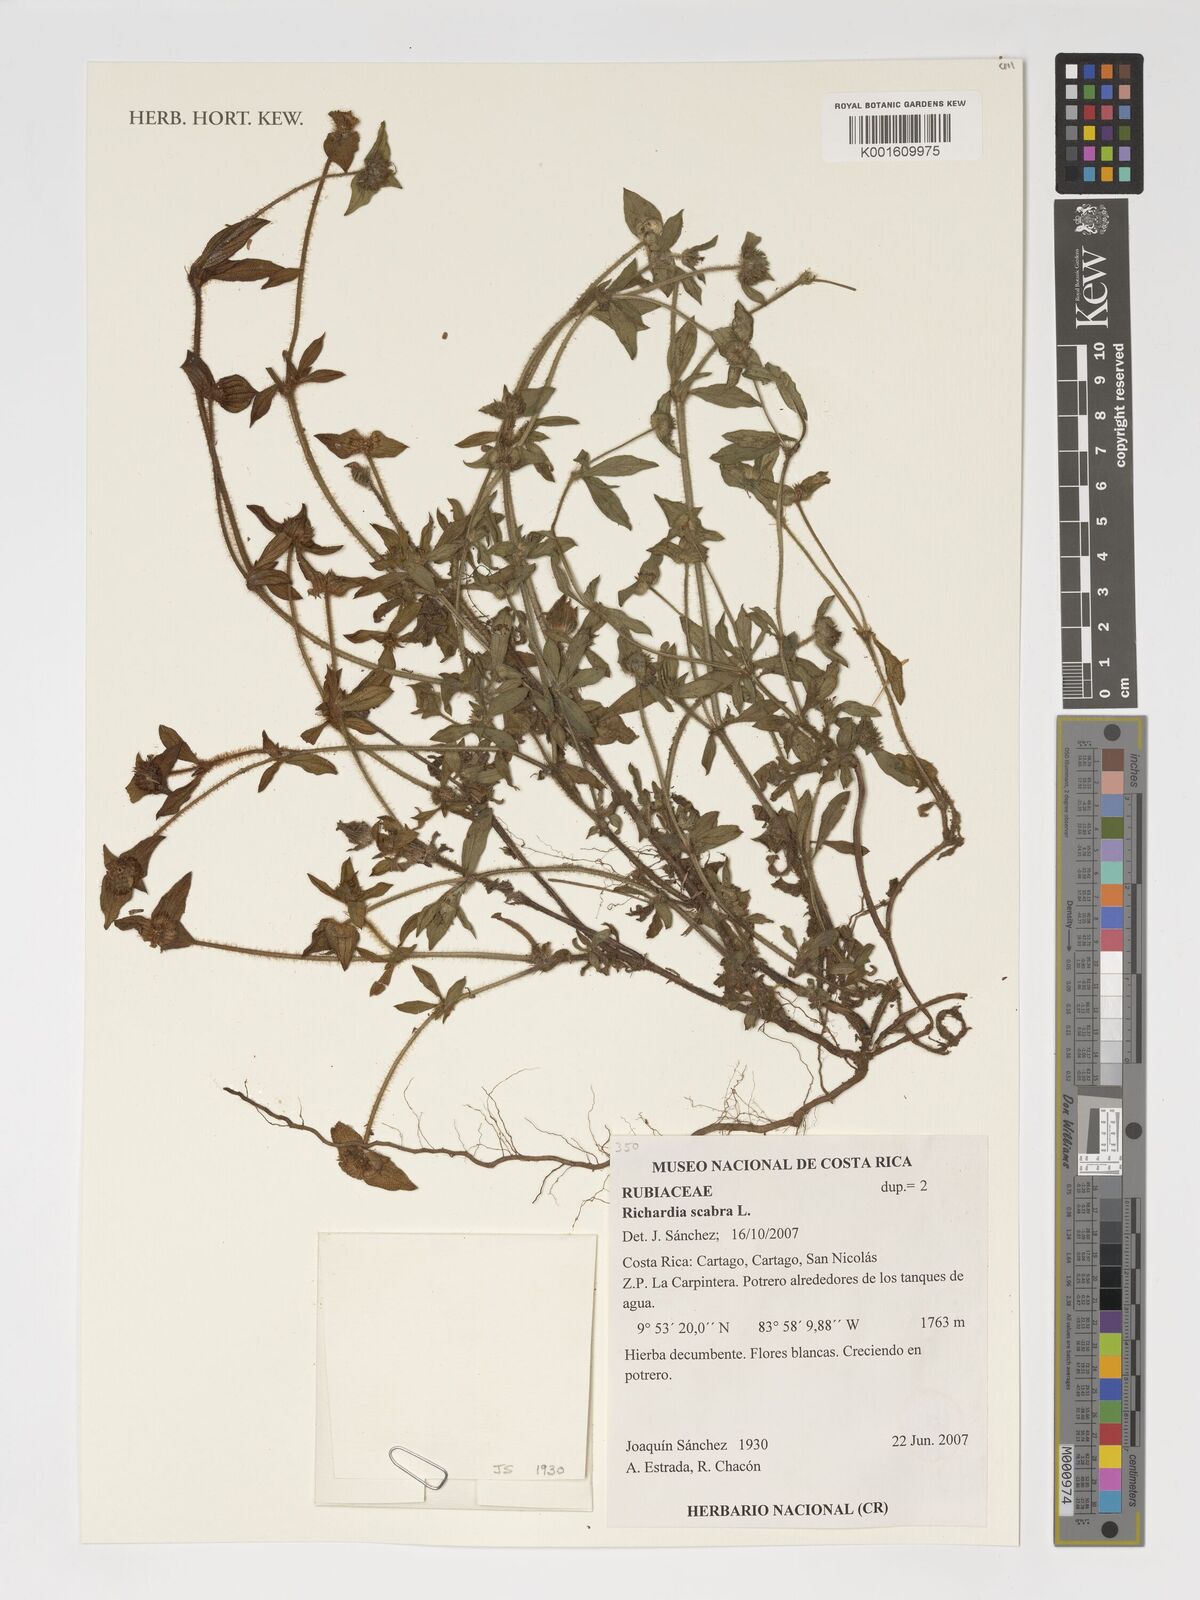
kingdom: Plantae
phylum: Tracheophyta
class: Magnoliopsida
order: Gentianales
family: Rubiaceae
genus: Richardia
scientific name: Richardia scabra
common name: Rough mexican clover
